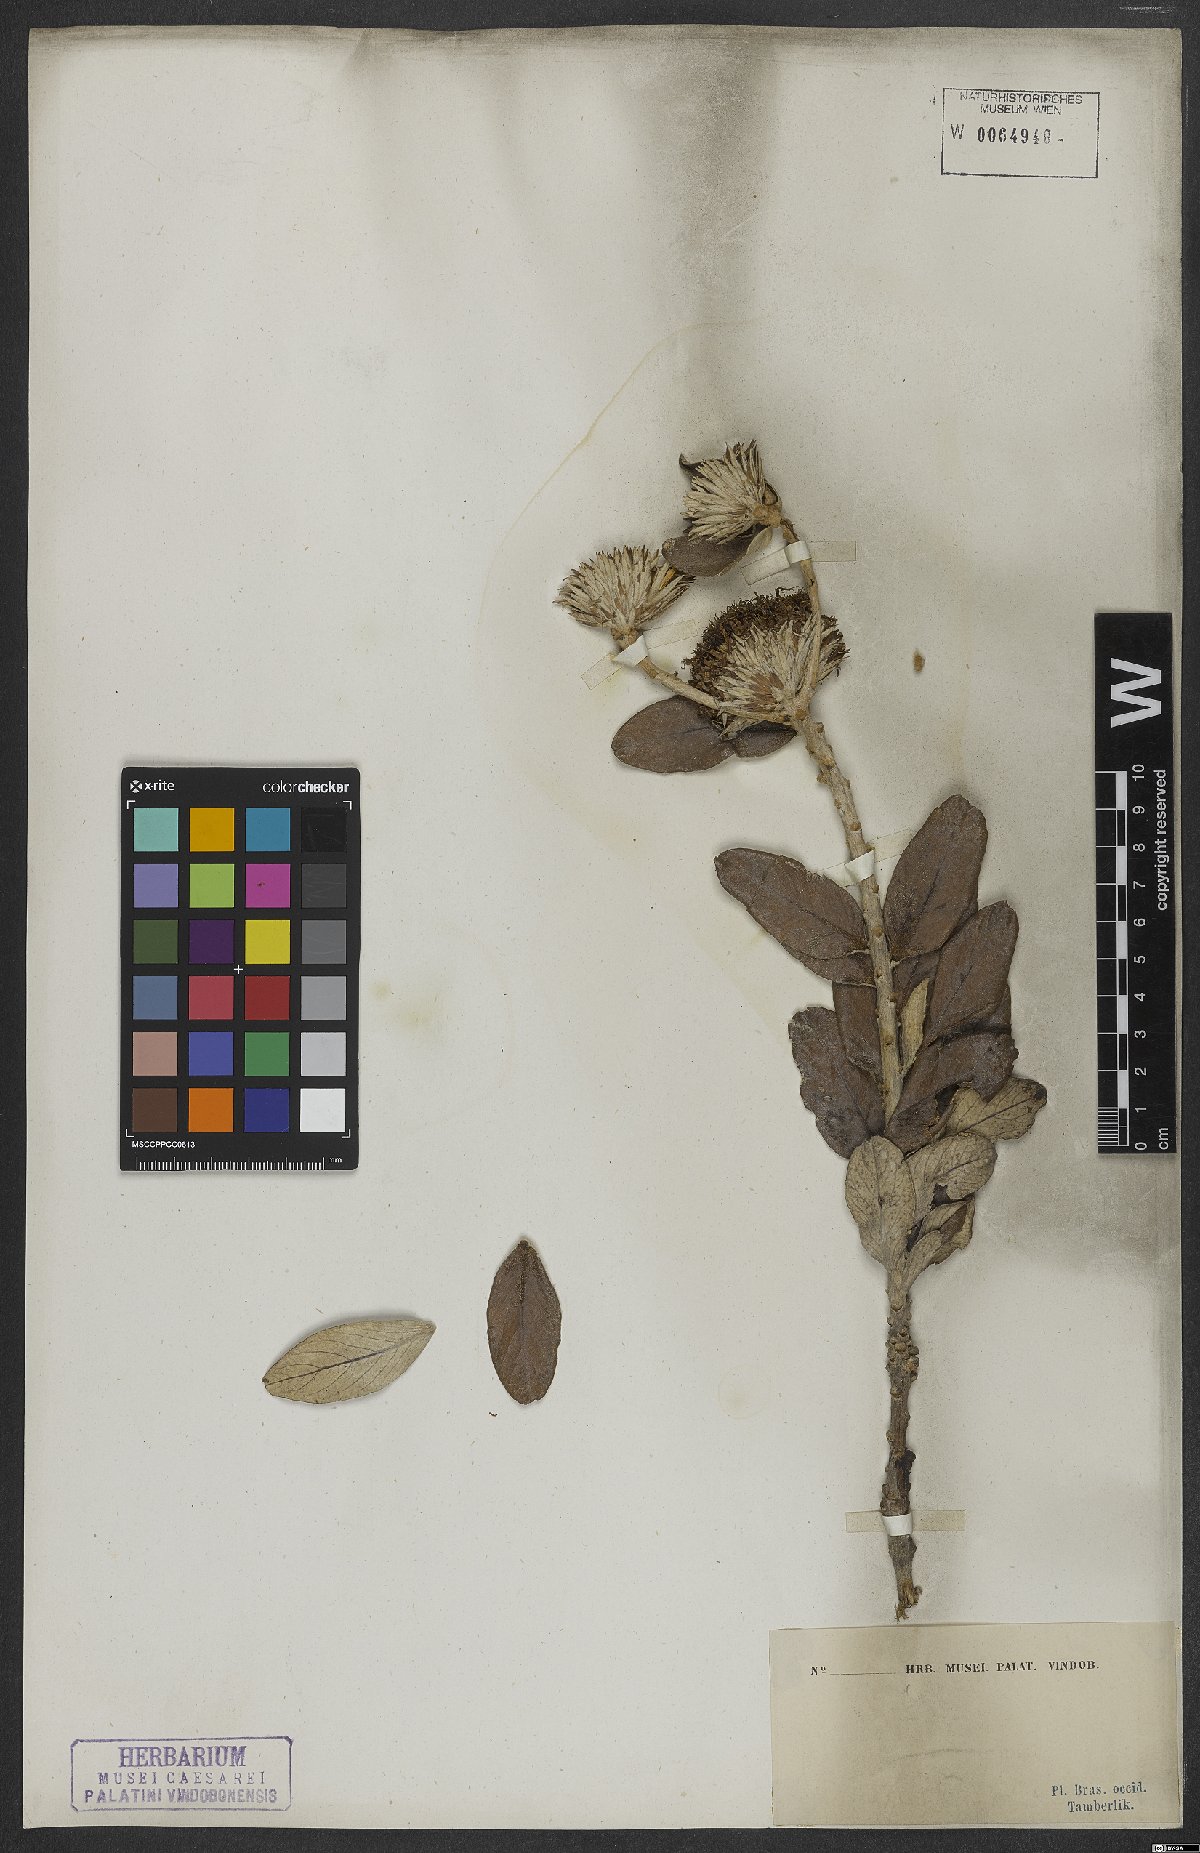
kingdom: Plantae
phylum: Tracheophyta
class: Magnoliopsida
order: Asterales
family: Asteraceae
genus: Lessingianthus
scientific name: Lessingianthus venosissimus
